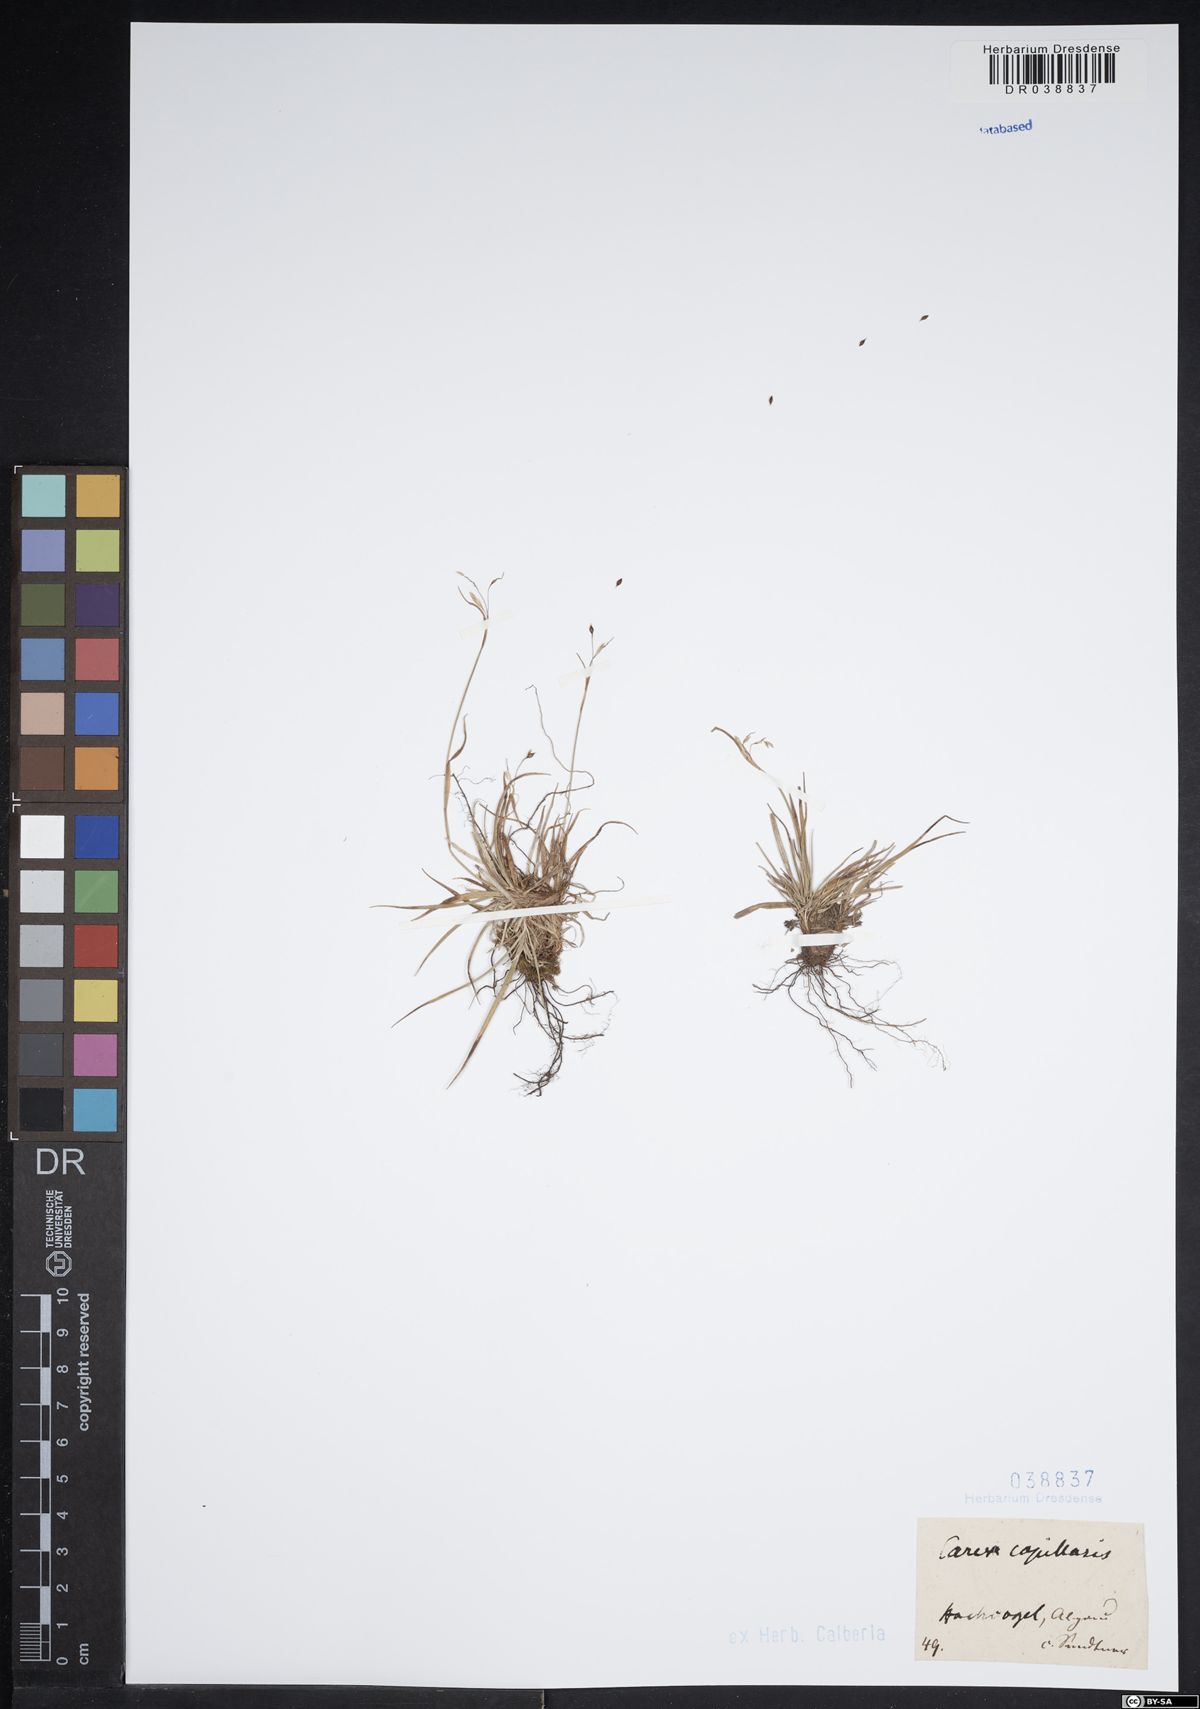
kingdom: Plantae
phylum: Tracheophyta
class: Liliopsida
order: Poales
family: Cyperaceae
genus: Carex
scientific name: Carex capillaris
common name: Hair sedge
